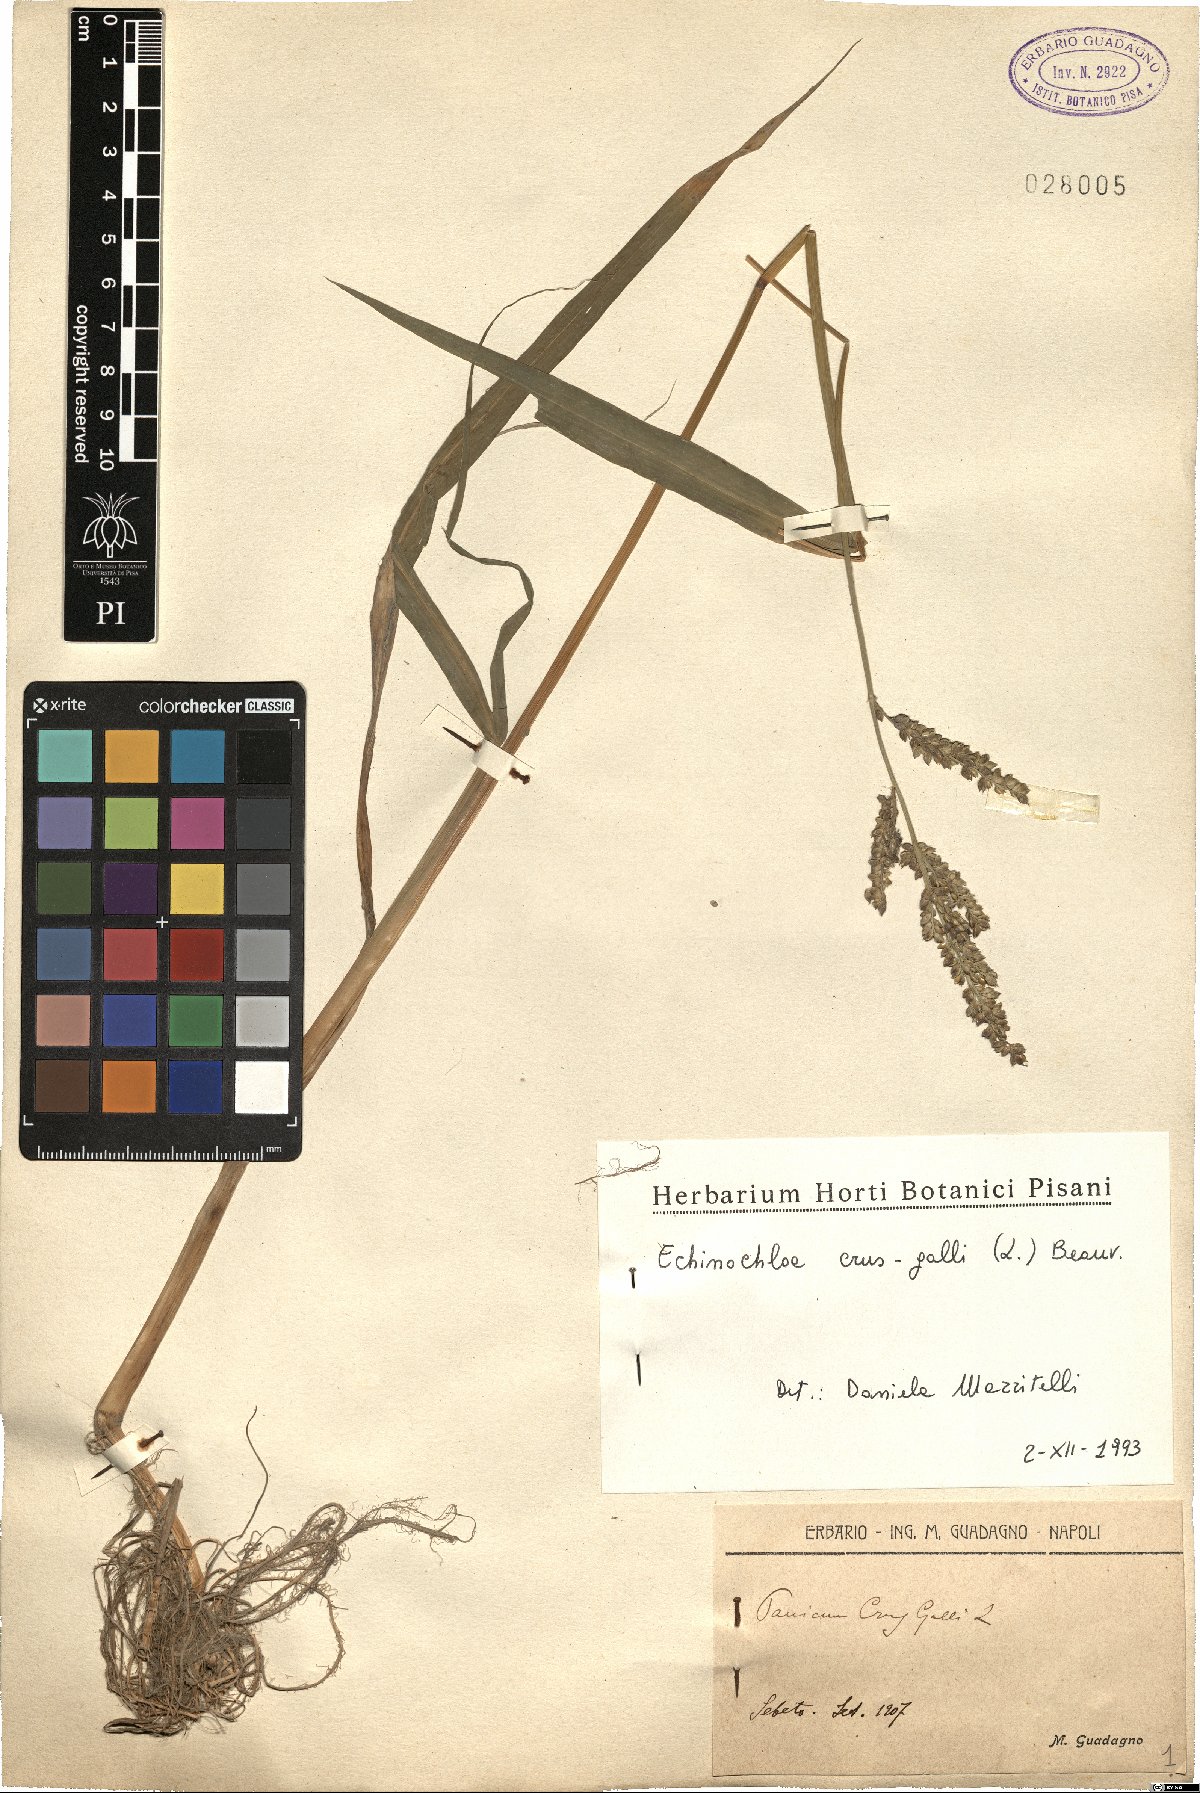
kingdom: Plantae
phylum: Tracheophyta
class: Liliopsida
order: Poales
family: Poaceae
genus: Echinochloa
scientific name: Echinochloa crus-galli
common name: Cockspur
